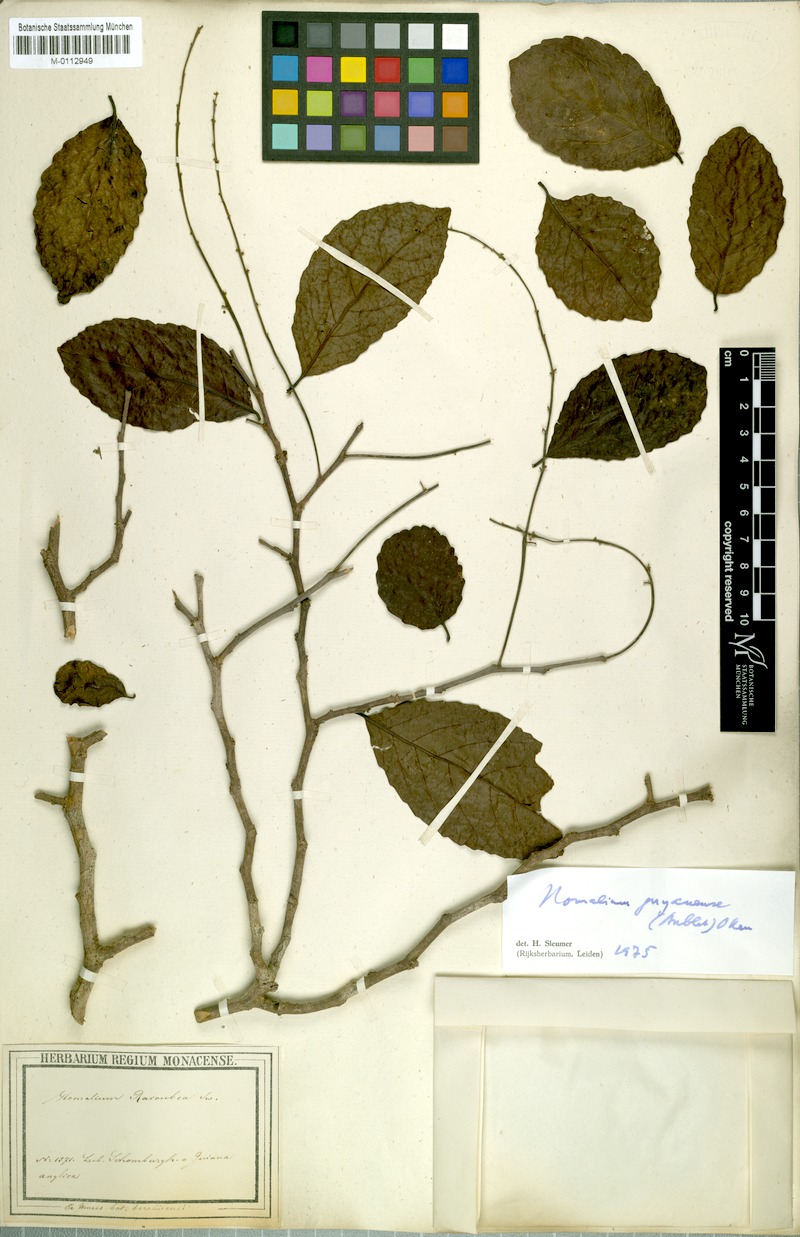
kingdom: Plantae
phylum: Tracheophyta
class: Magnoliopsida
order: Malpighiales
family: Salicaceae
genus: Homalium
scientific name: Homalium guianense
